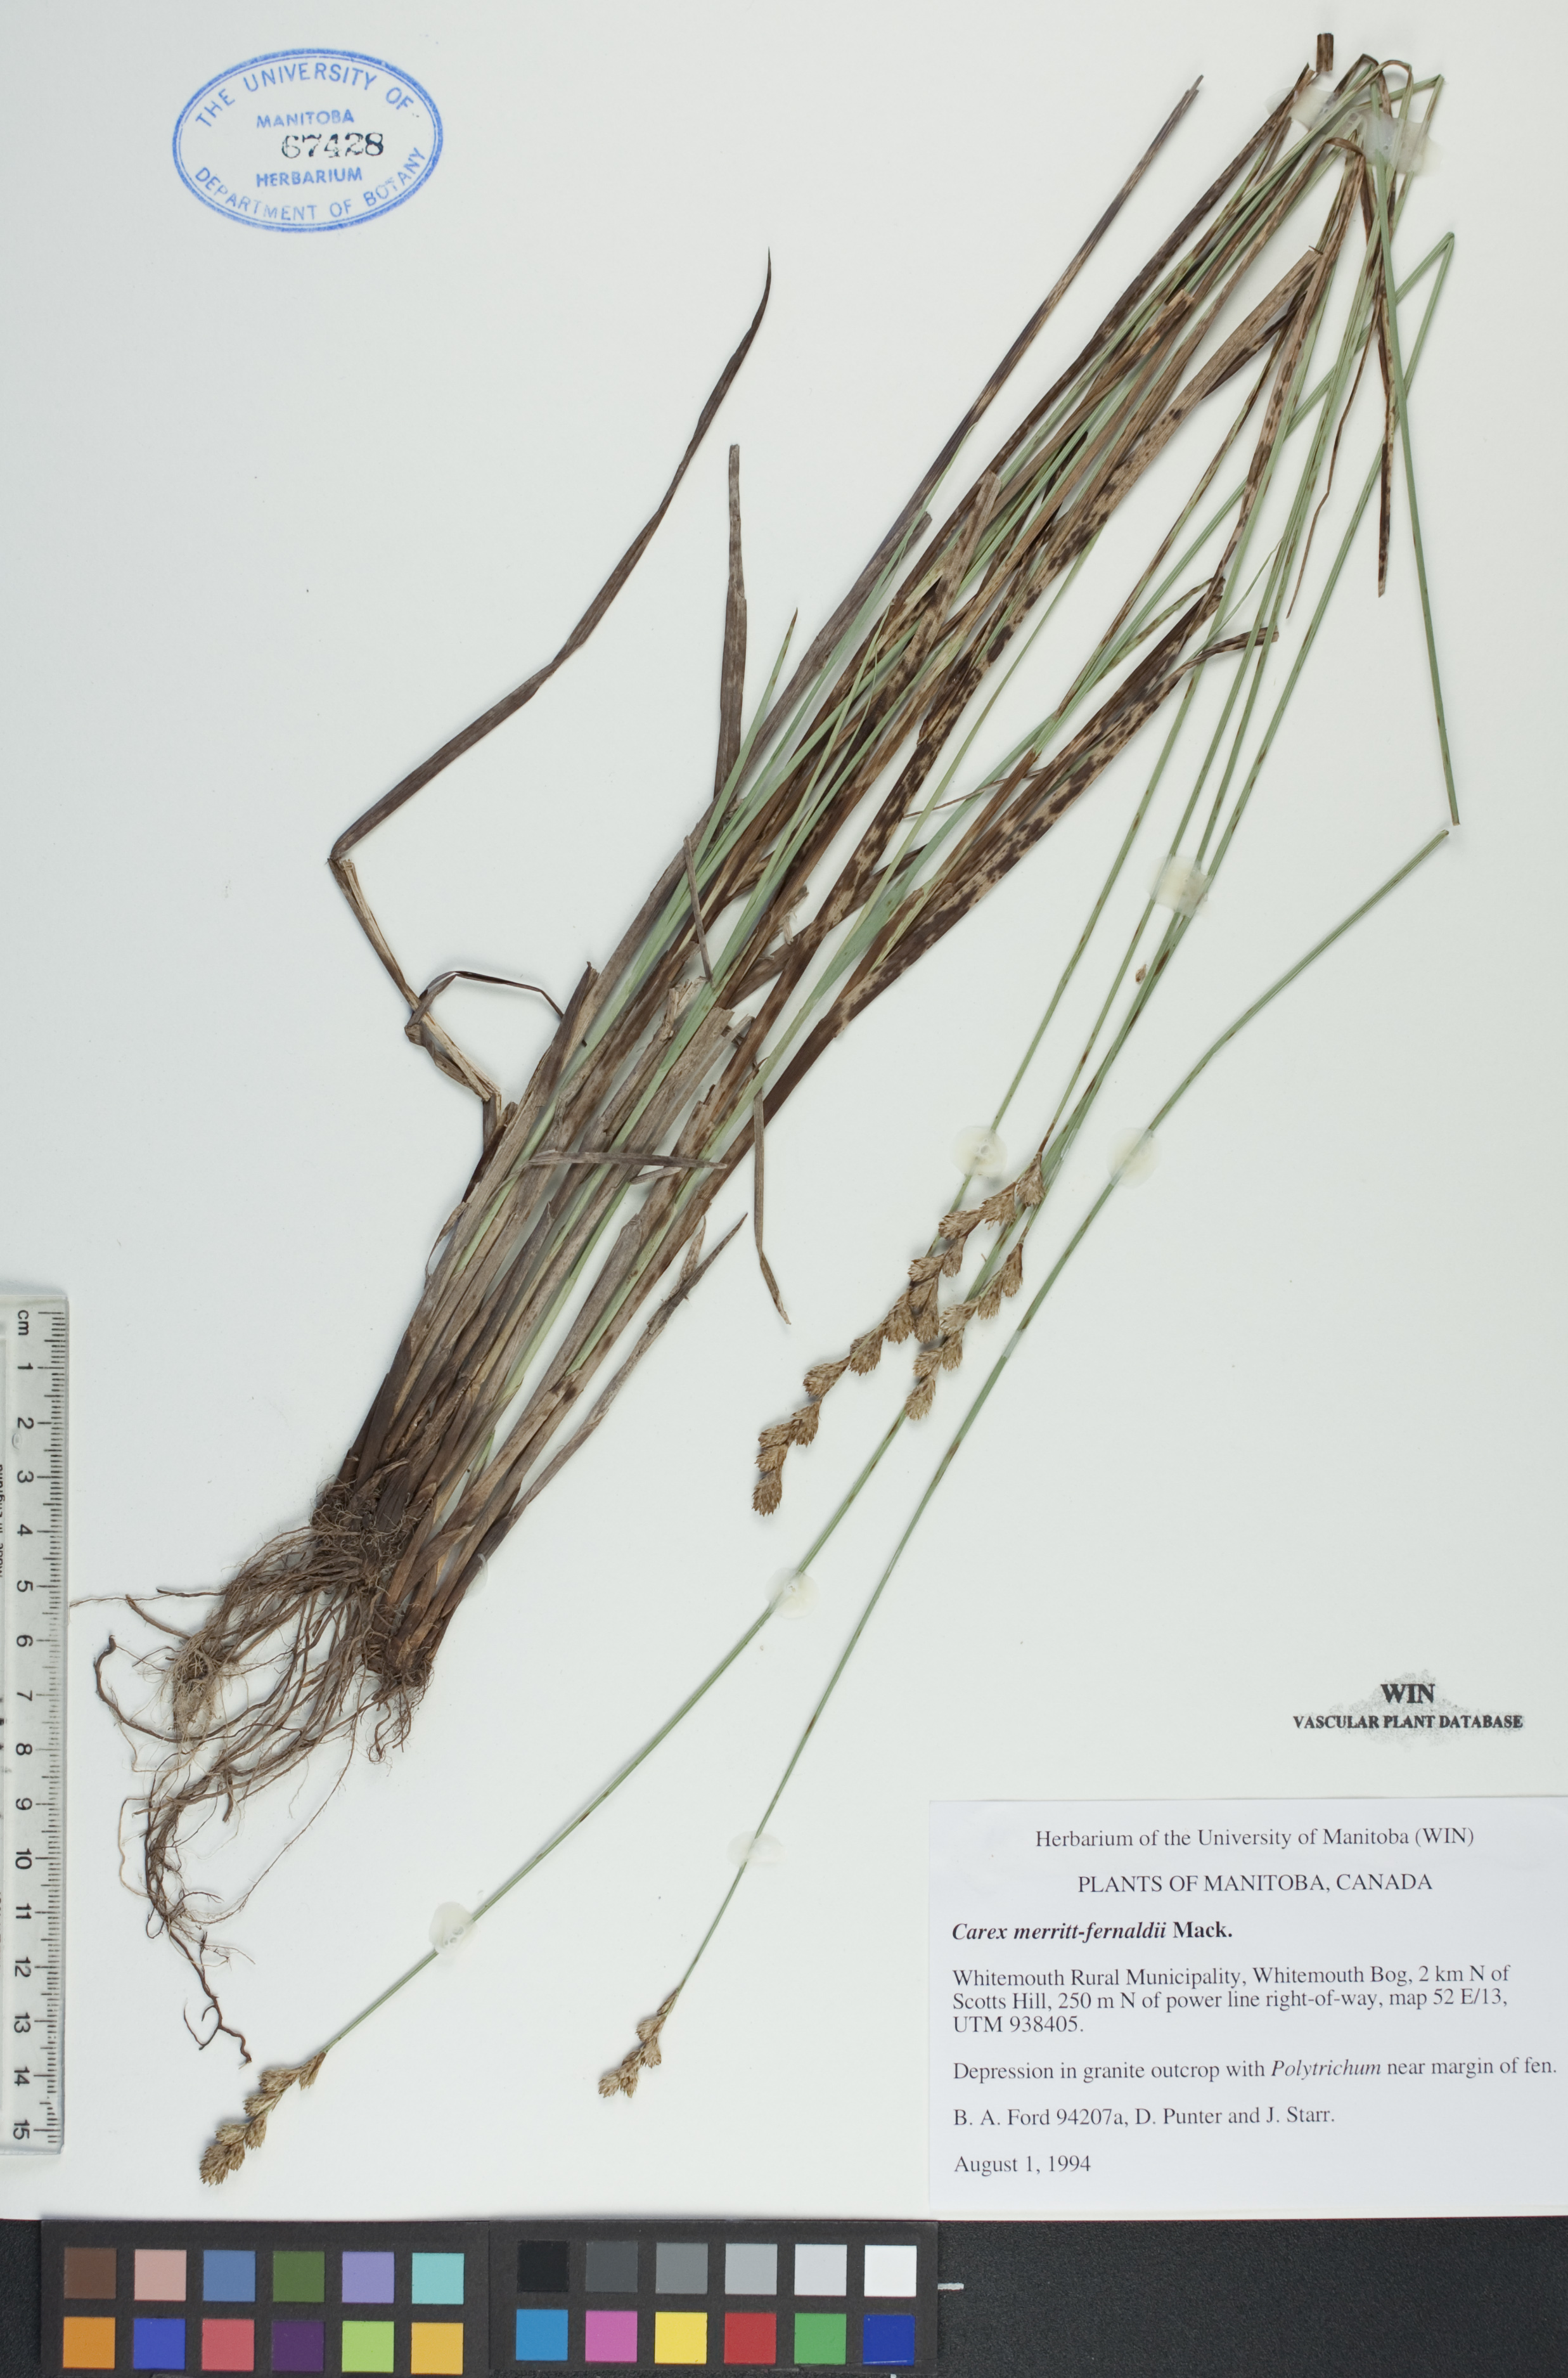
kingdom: Plantae
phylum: Tracheophyta
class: Liliopsida
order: Poales
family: Cyperaceae
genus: Carex
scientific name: Carex merritt-fernaldii
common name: Fernald's oval sedge
